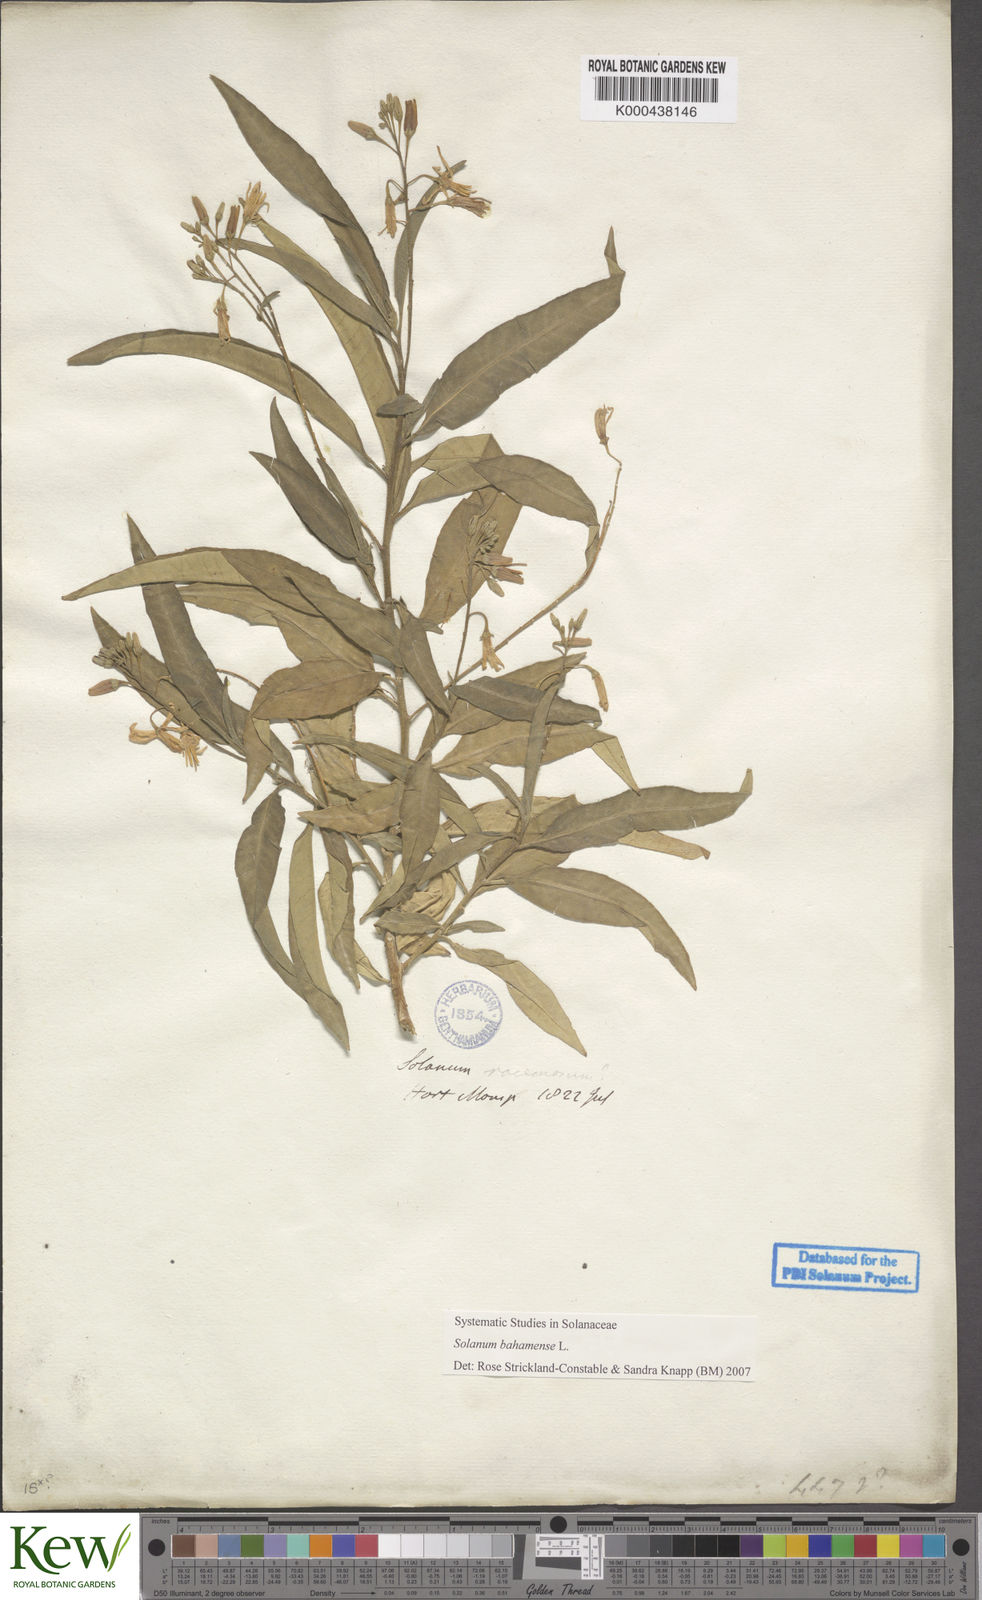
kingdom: Plantae
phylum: Tracheophyta
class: Magnoliopsida
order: Solanales
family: Solanaceae
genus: Solanum
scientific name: Solanum bahamense
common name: Canker-berry
